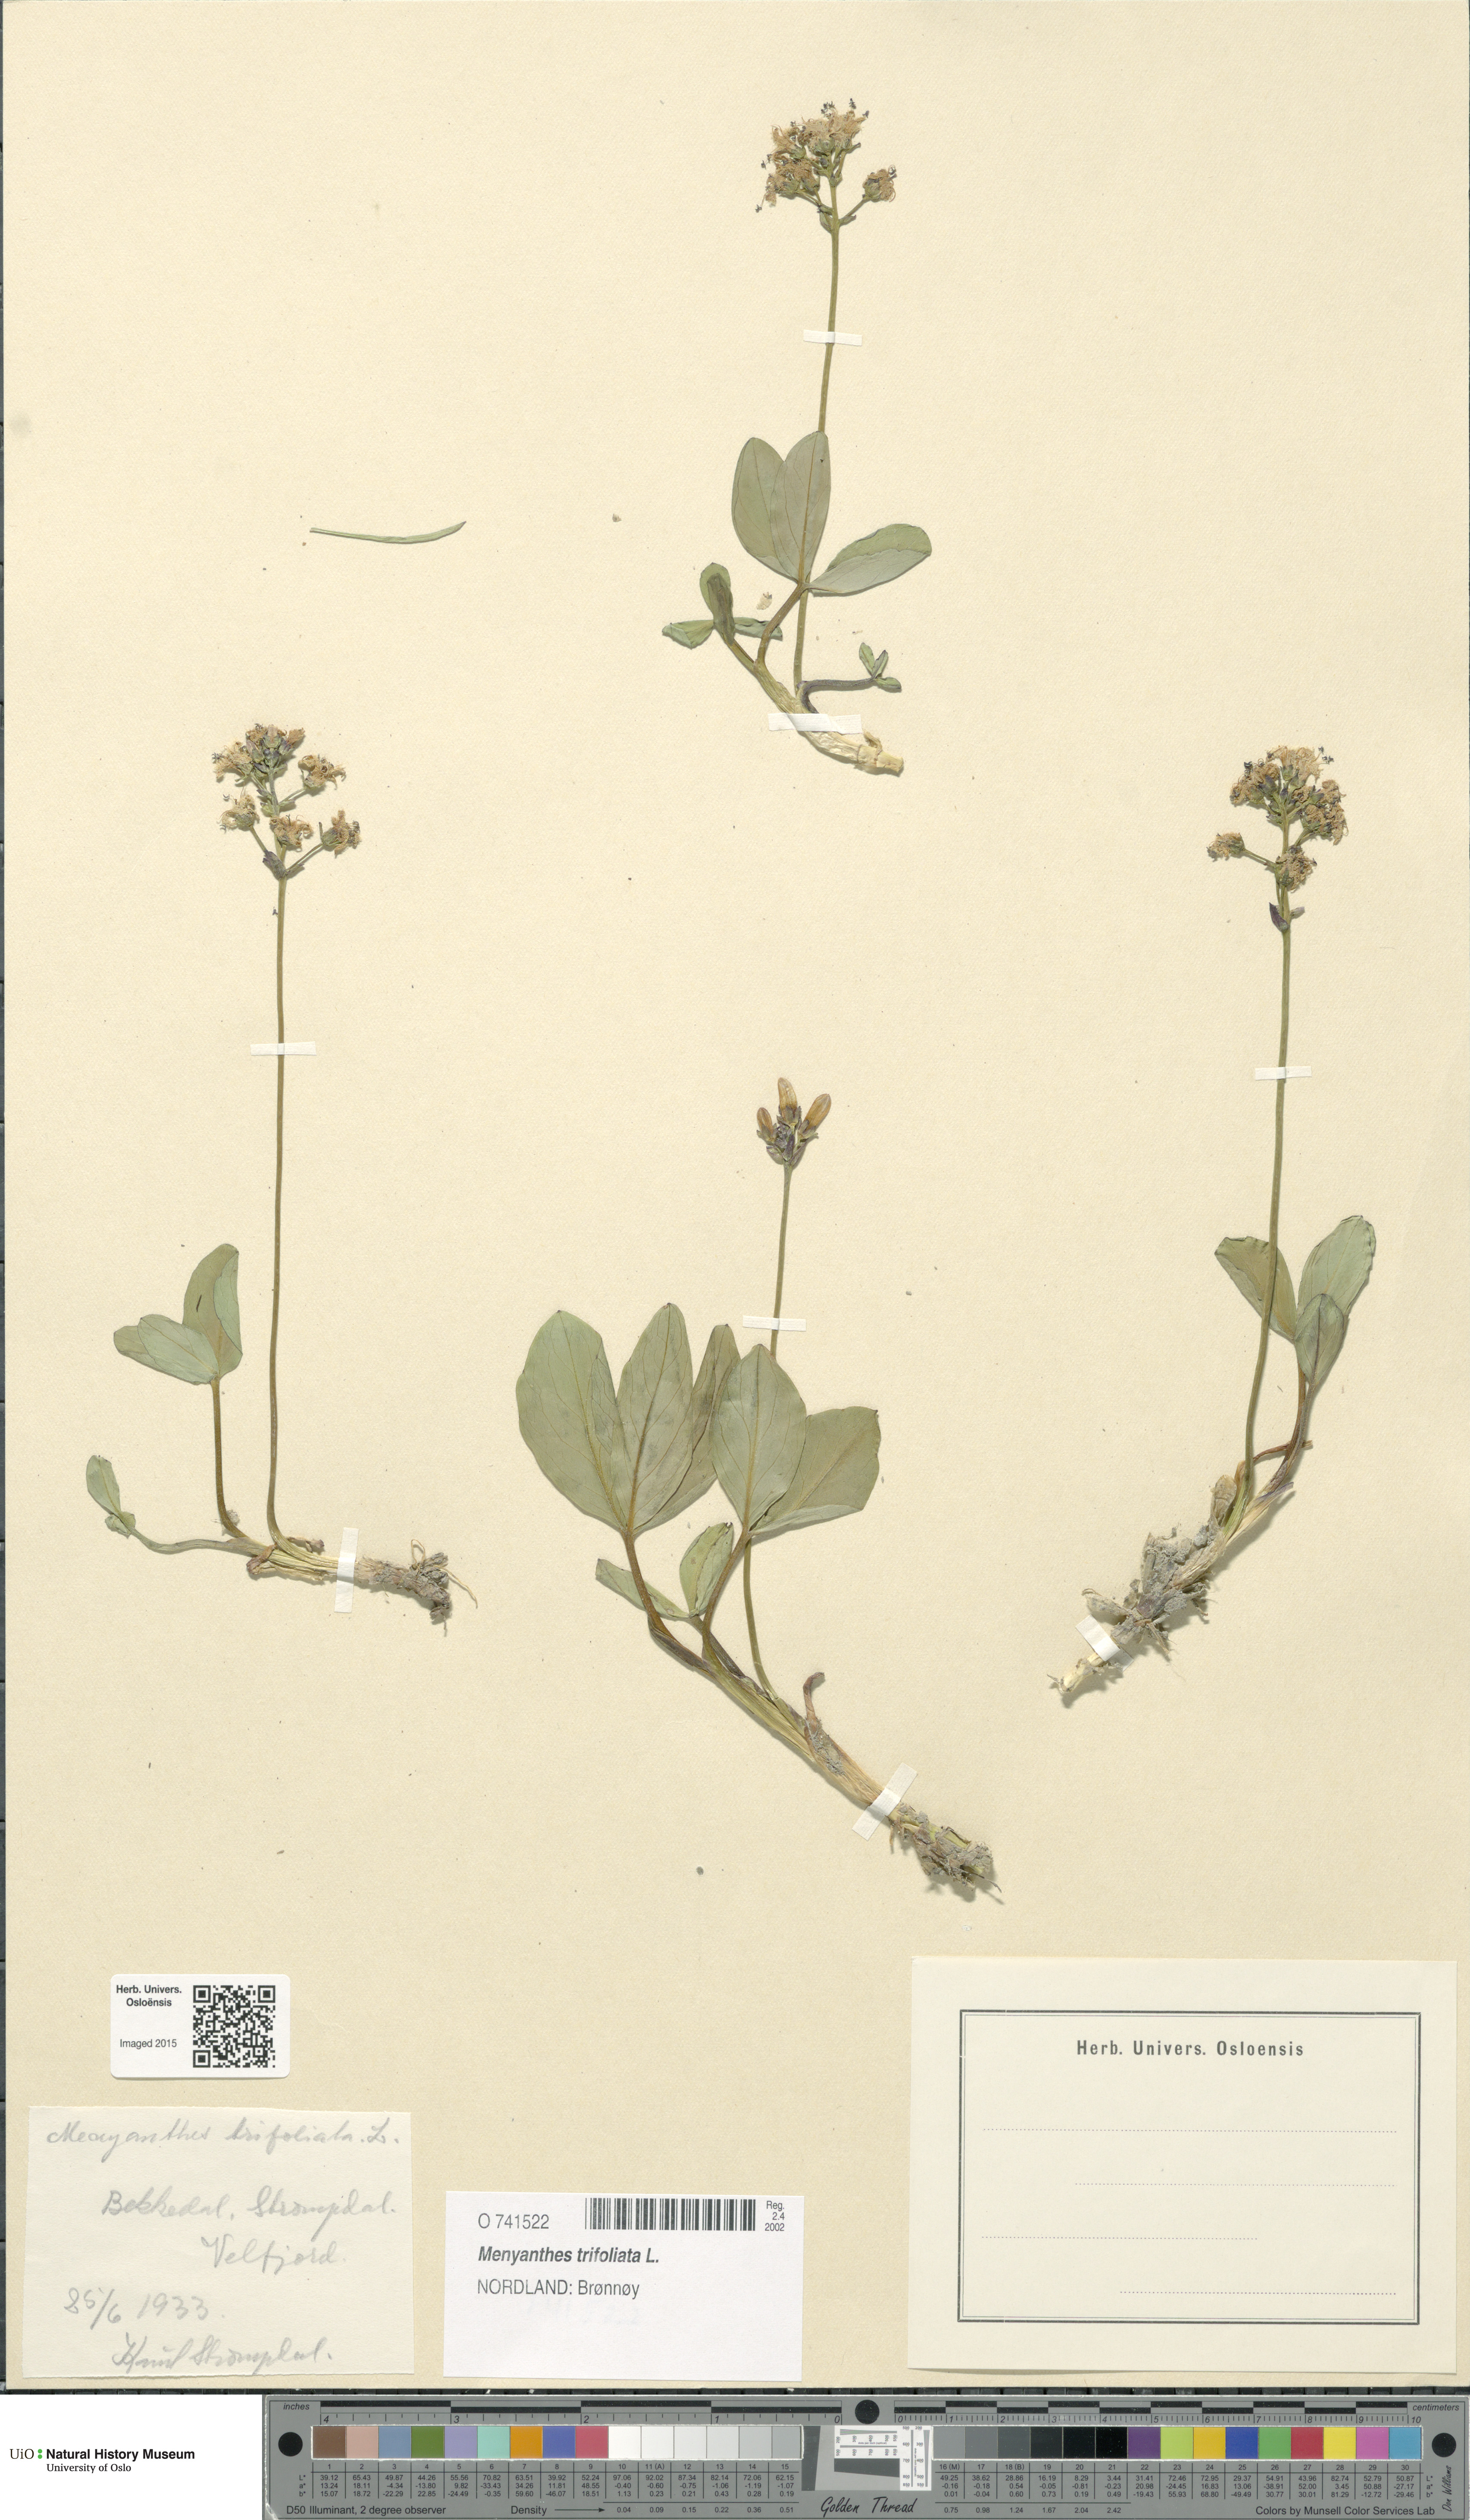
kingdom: Plantae
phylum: Tracheophyta
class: Magnoliopsida
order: Asterales
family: Menyanthaceae
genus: Menyanthes
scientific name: Menyanthes trifoliata
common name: Bogbean
